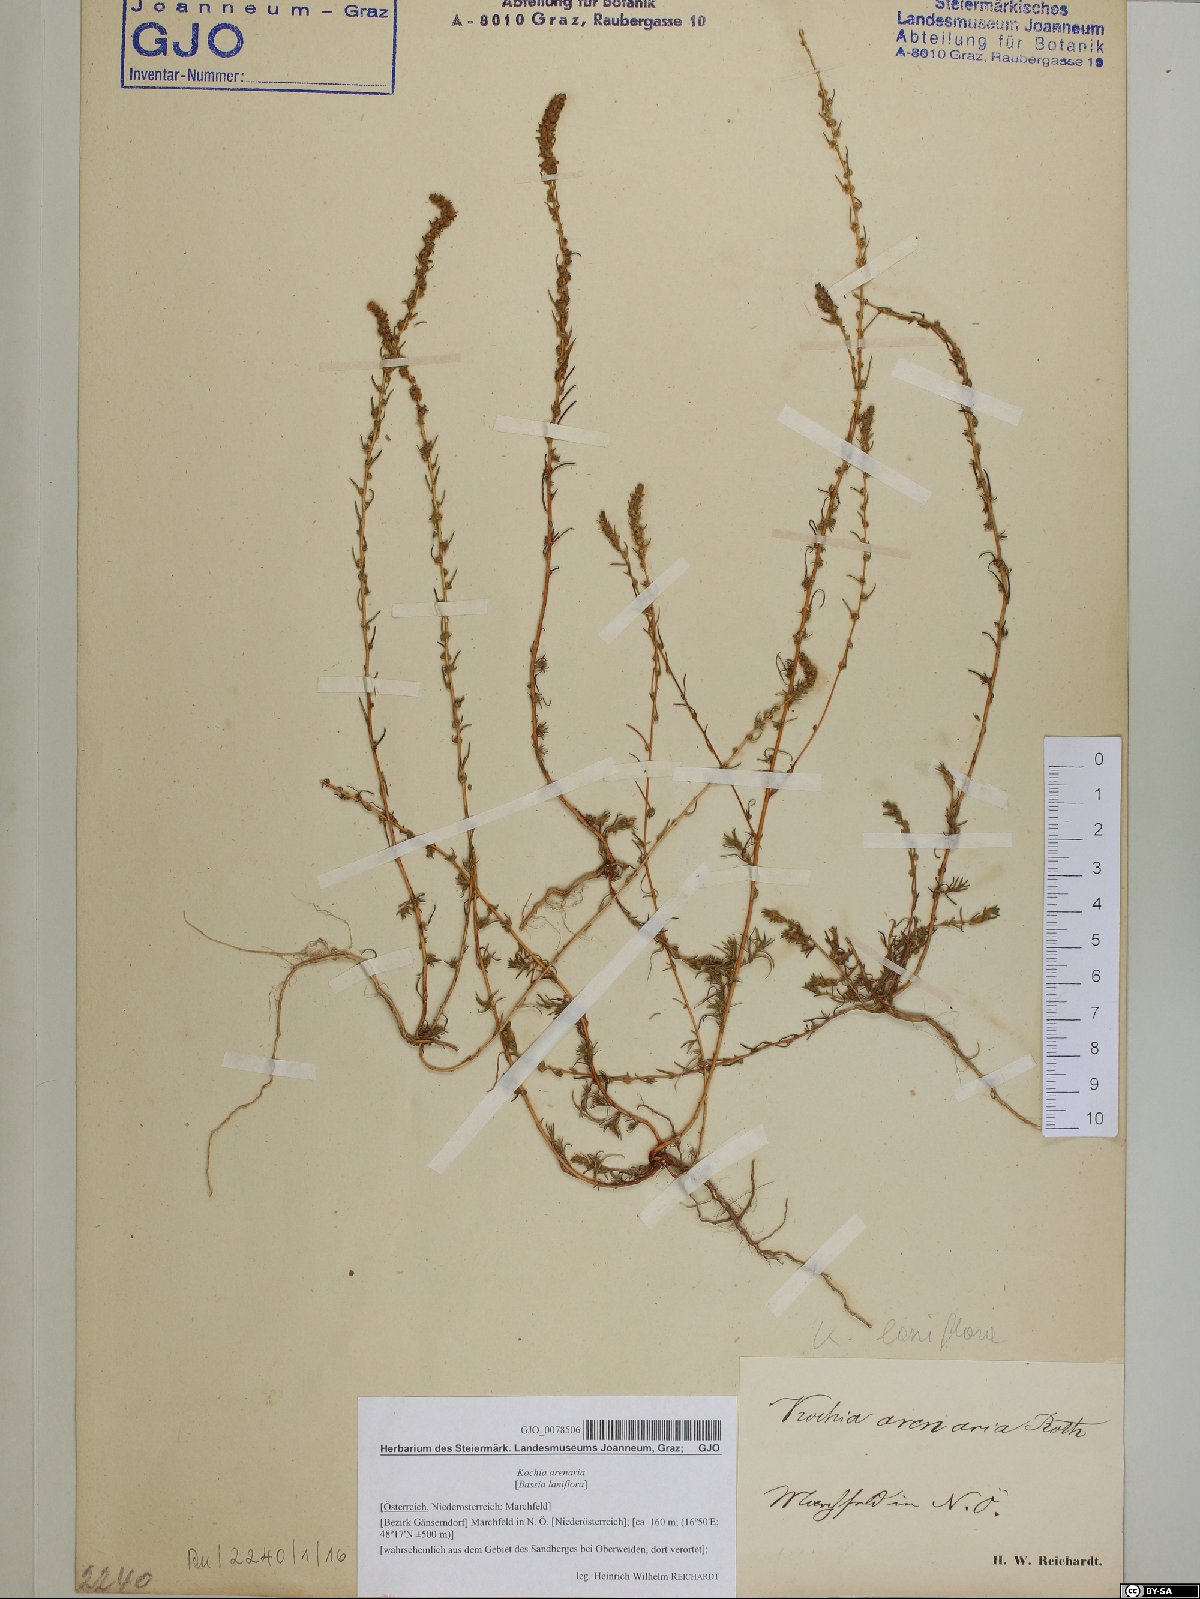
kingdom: Plantae
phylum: Tracheophyta
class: Magnoliopsida
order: Caryophyllales
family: Amaranthaceae
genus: Bassia
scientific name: Bassia laniflora
